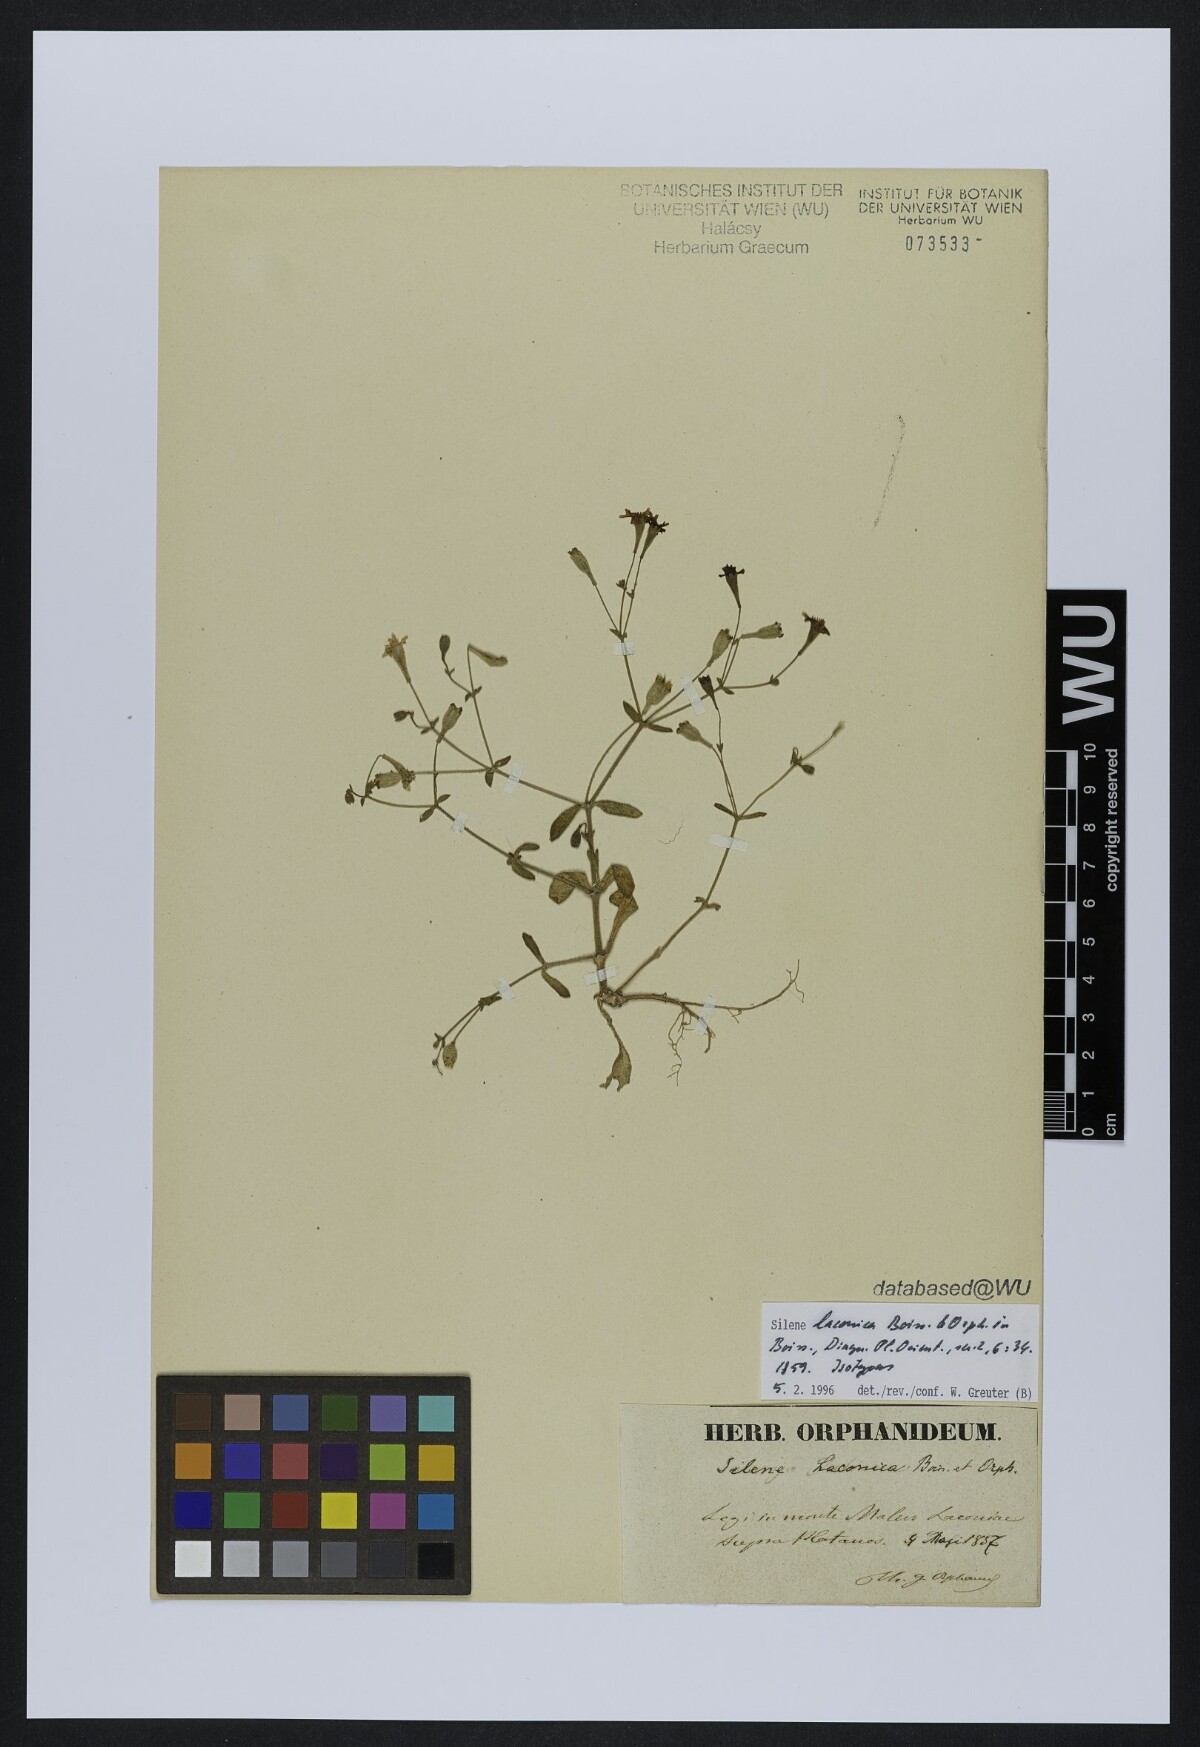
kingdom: Plantae
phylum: Tracheophyta
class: Magnoliopsida
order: Caryophyllales
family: Caryophyllaceae
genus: Silene
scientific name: Silene laconica
